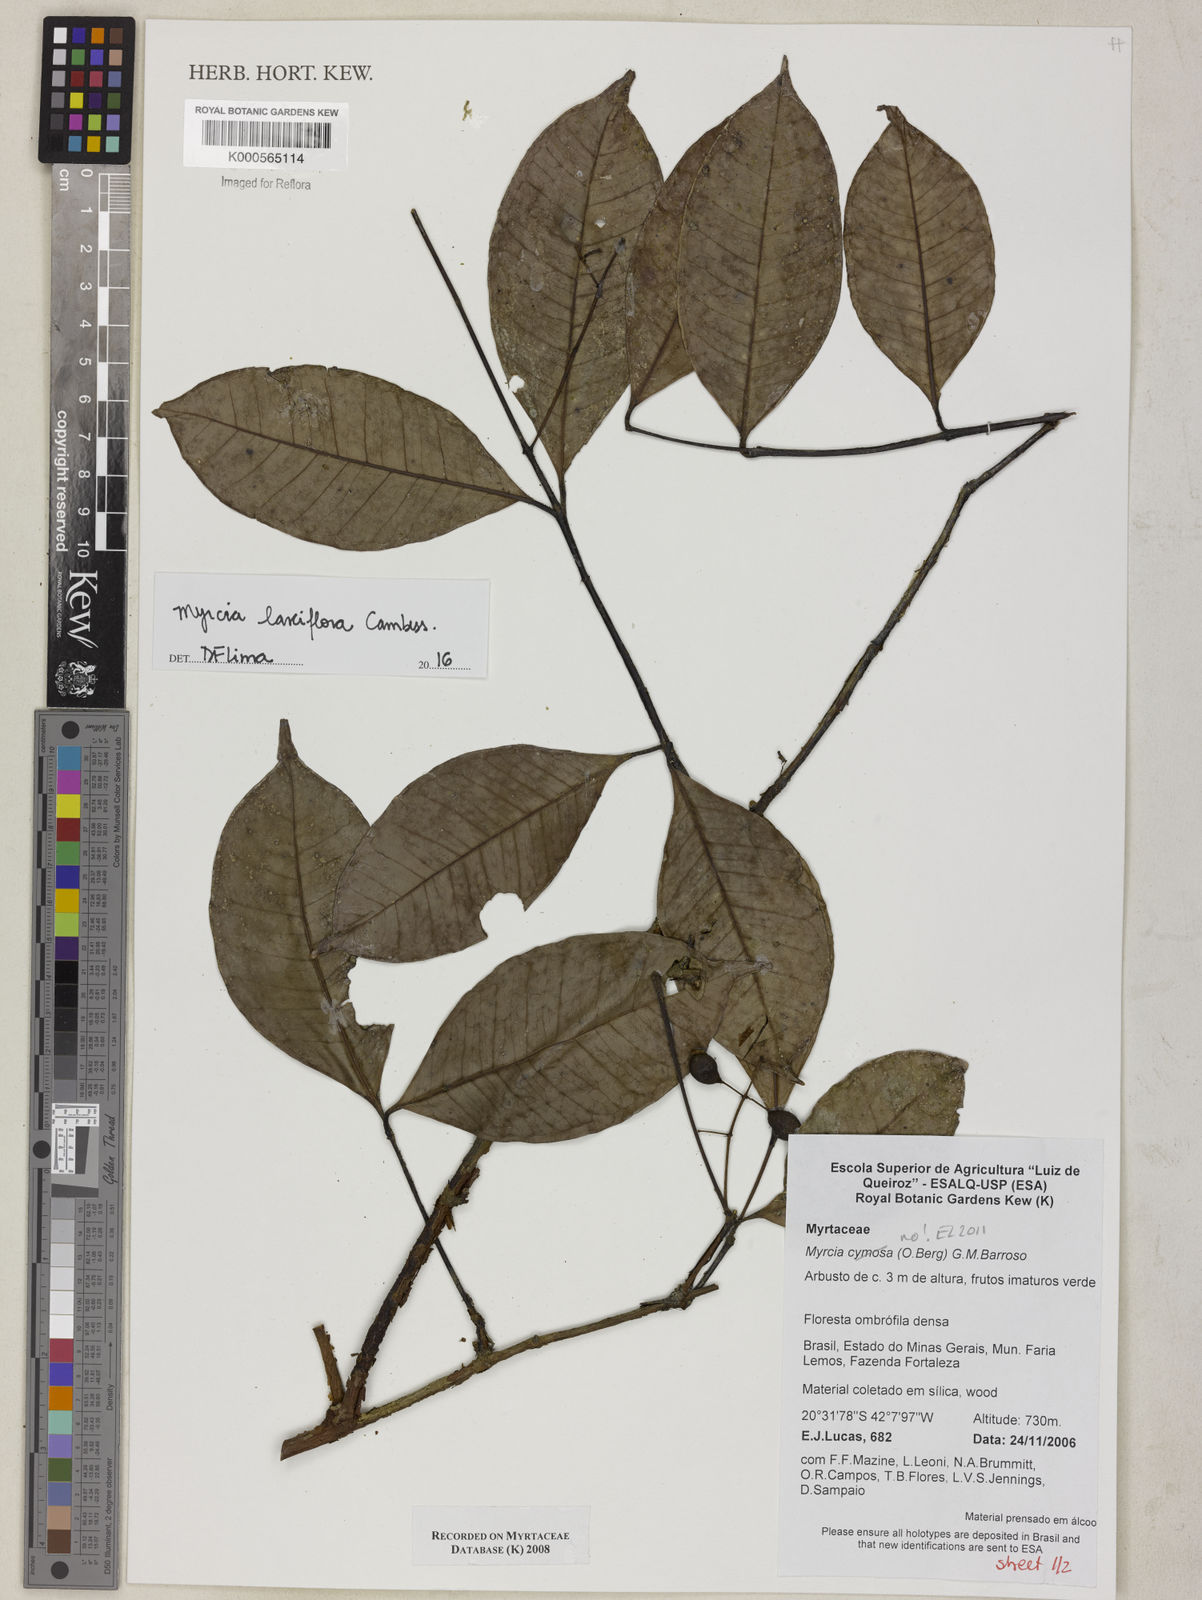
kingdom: Plantae
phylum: Tracheophyta
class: Magnoliopsida
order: Myrtales
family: Myrtaceae
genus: Myrcia
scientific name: Myrcia laxiflora
